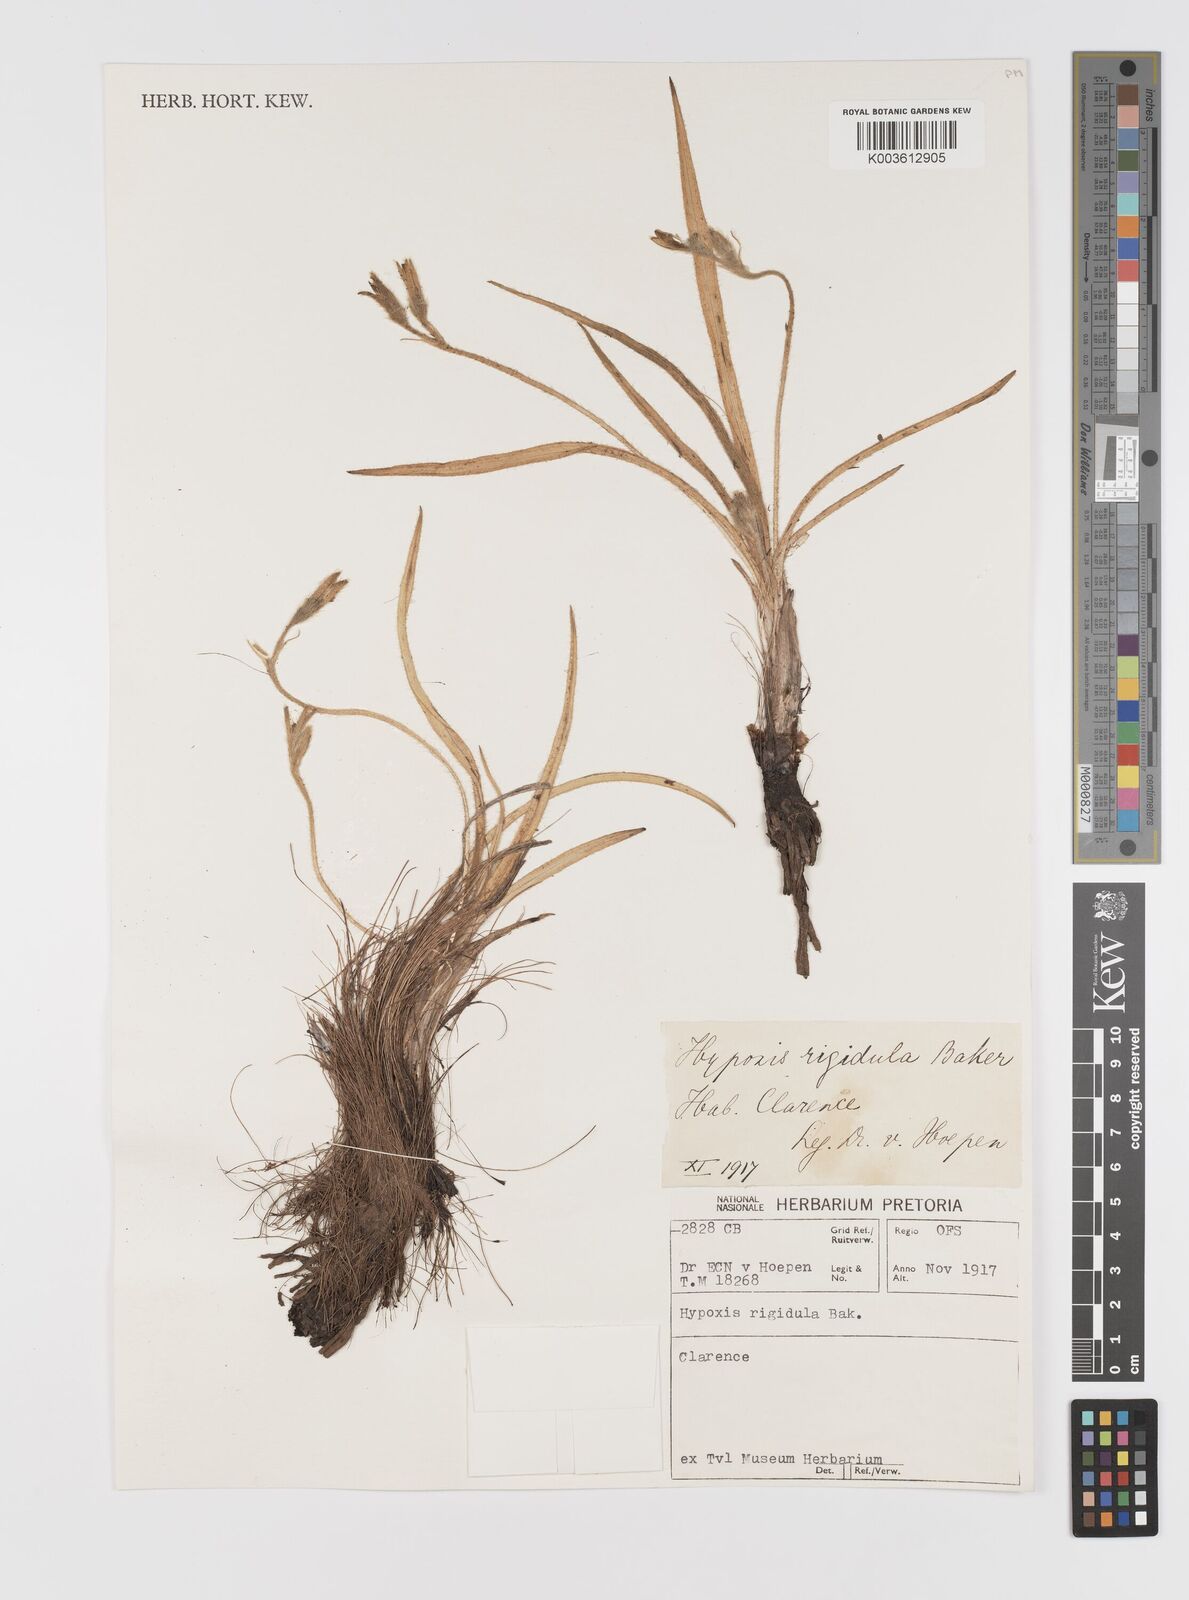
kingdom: Plantae
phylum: Tracheophyta
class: Liliopsida
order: Asparagales
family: Hypoxidaceae
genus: Hypoxis
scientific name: Hypoxis acuminata
